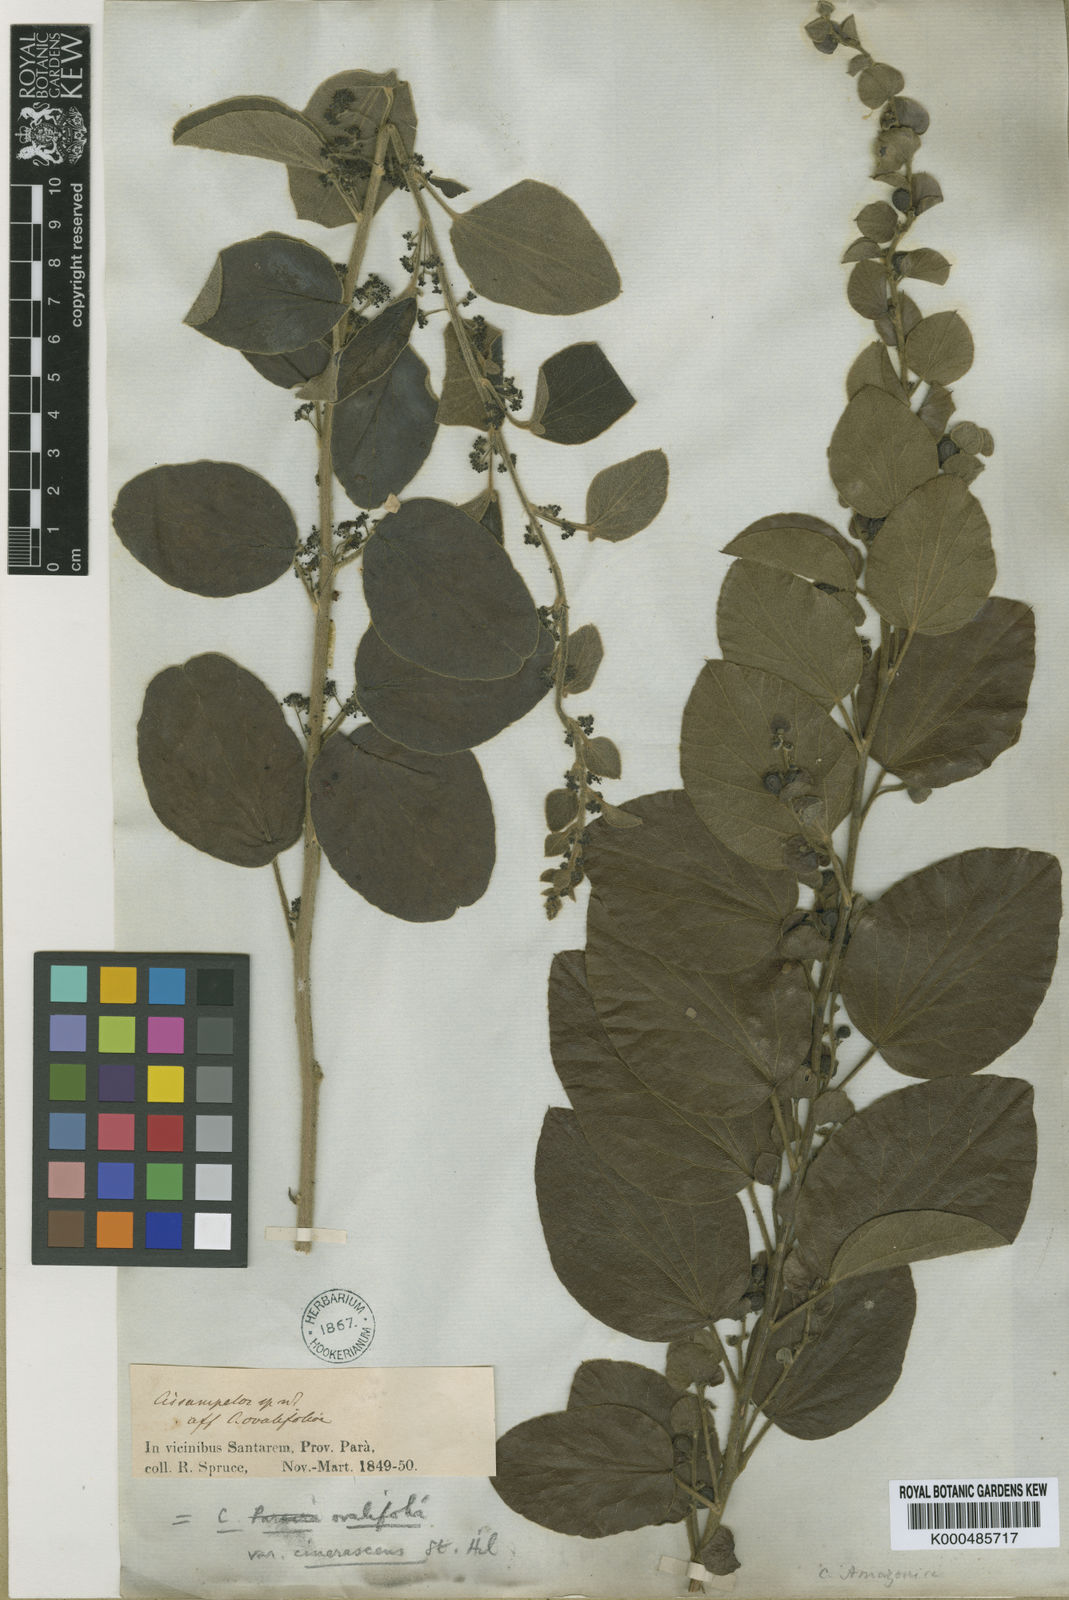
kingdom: Plantae
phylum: Tracheophyta
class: Magnoliopsida
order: Ranunculales
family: Menispermaceae
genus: Cissampelos
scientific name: Cissampelos ovalifolia
